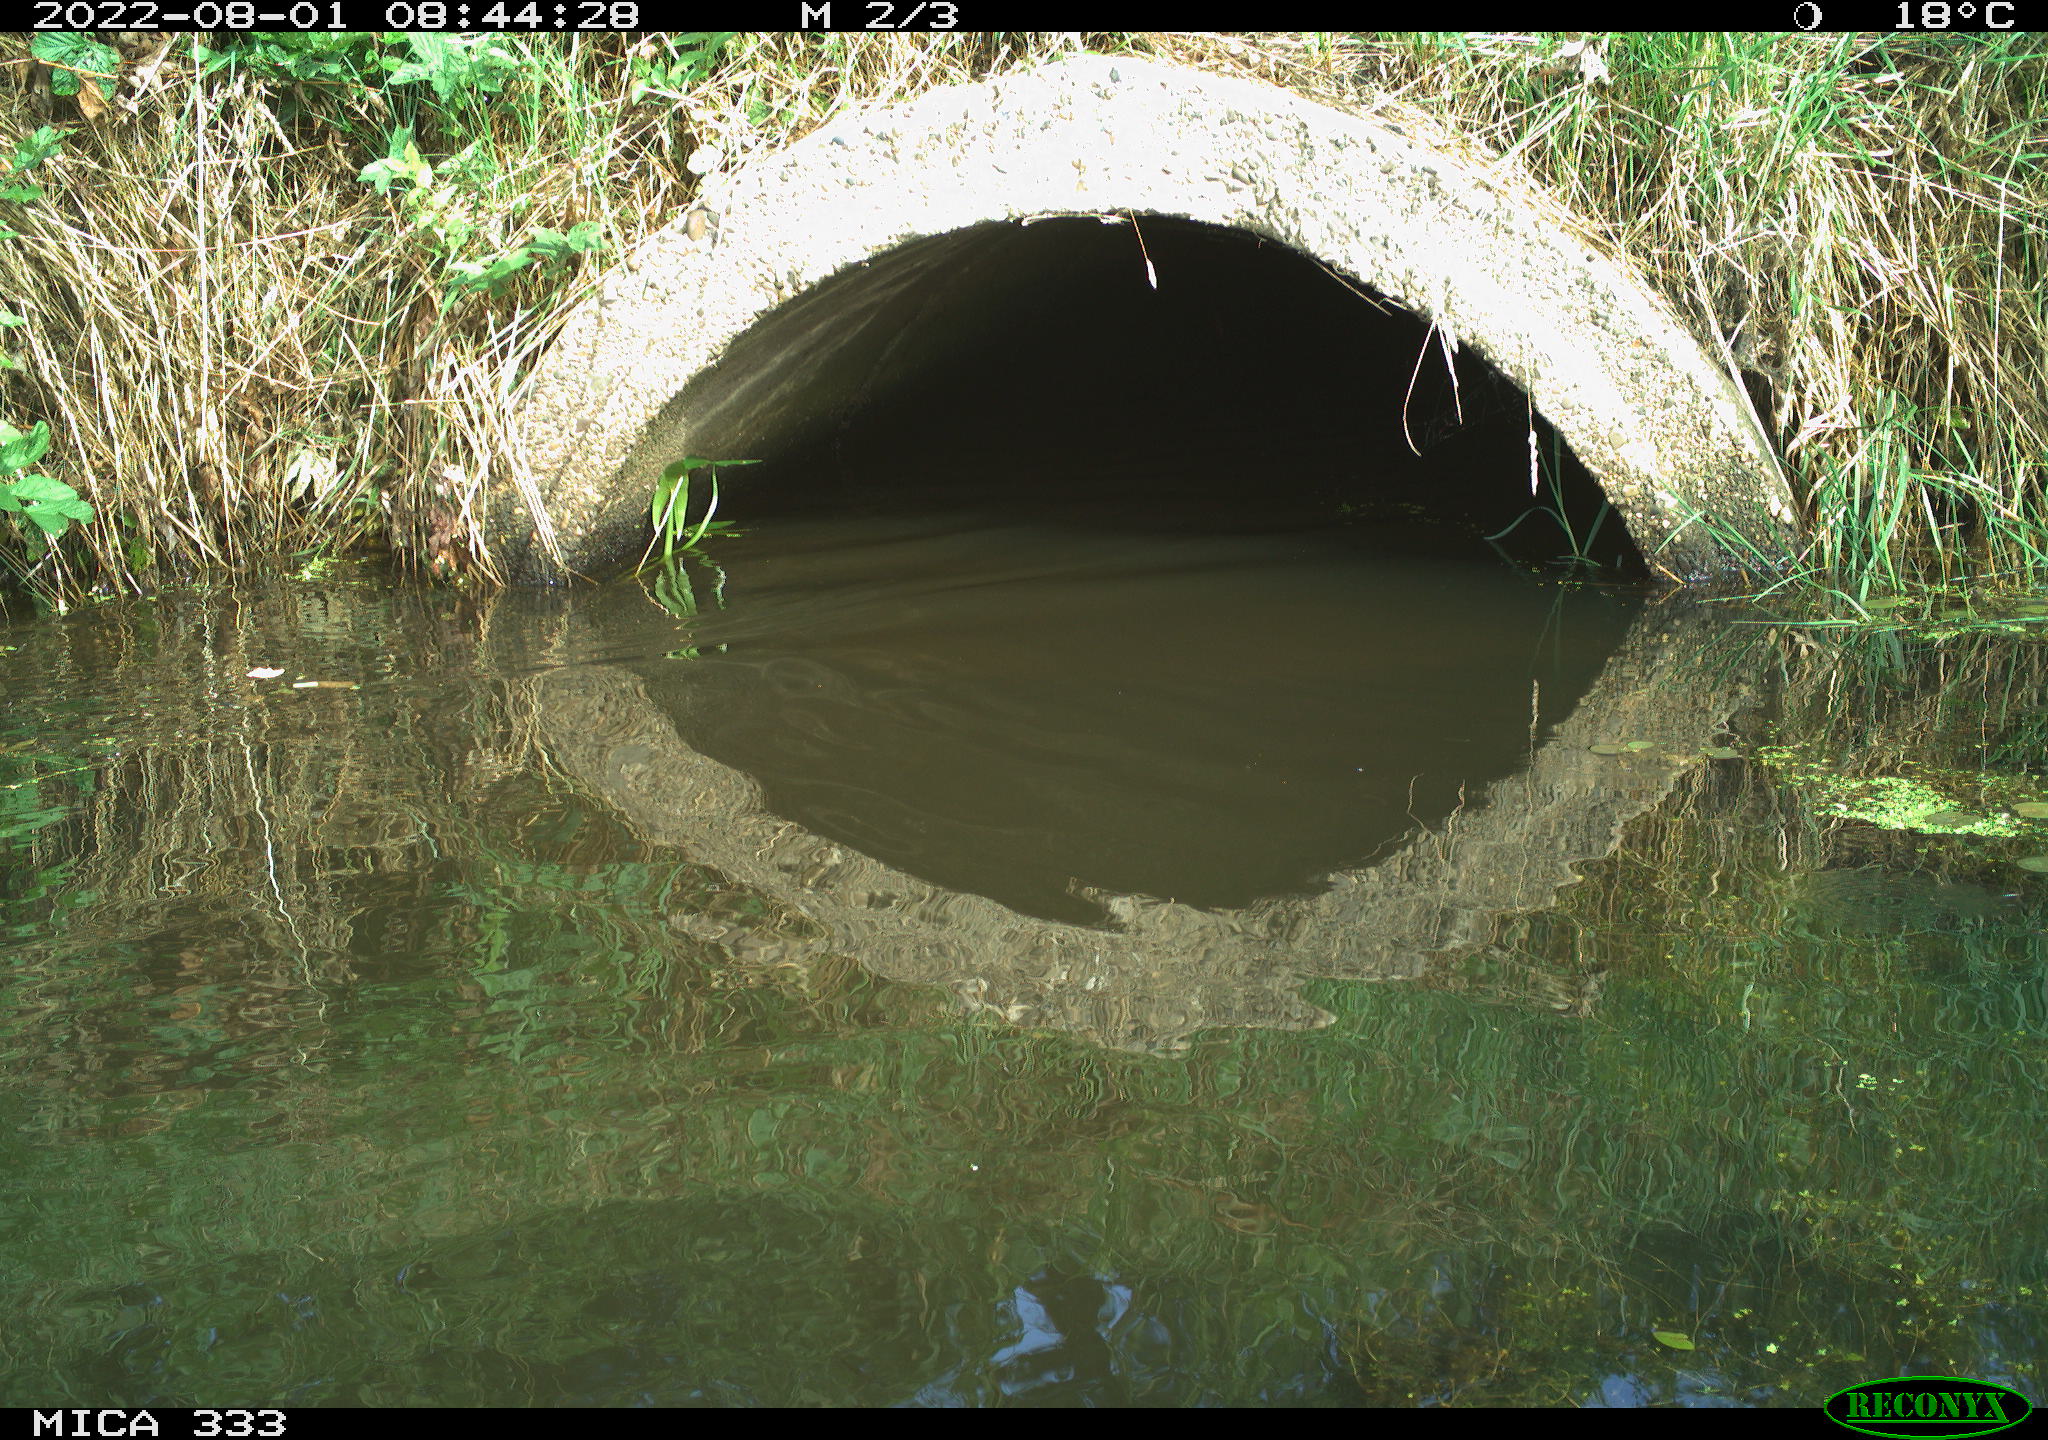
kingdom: Animalia
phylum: Chordata
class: Aves
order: Anseriformes
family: Anatidae
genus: Anas
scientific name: Anas platyrhynchos
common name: Mallard
